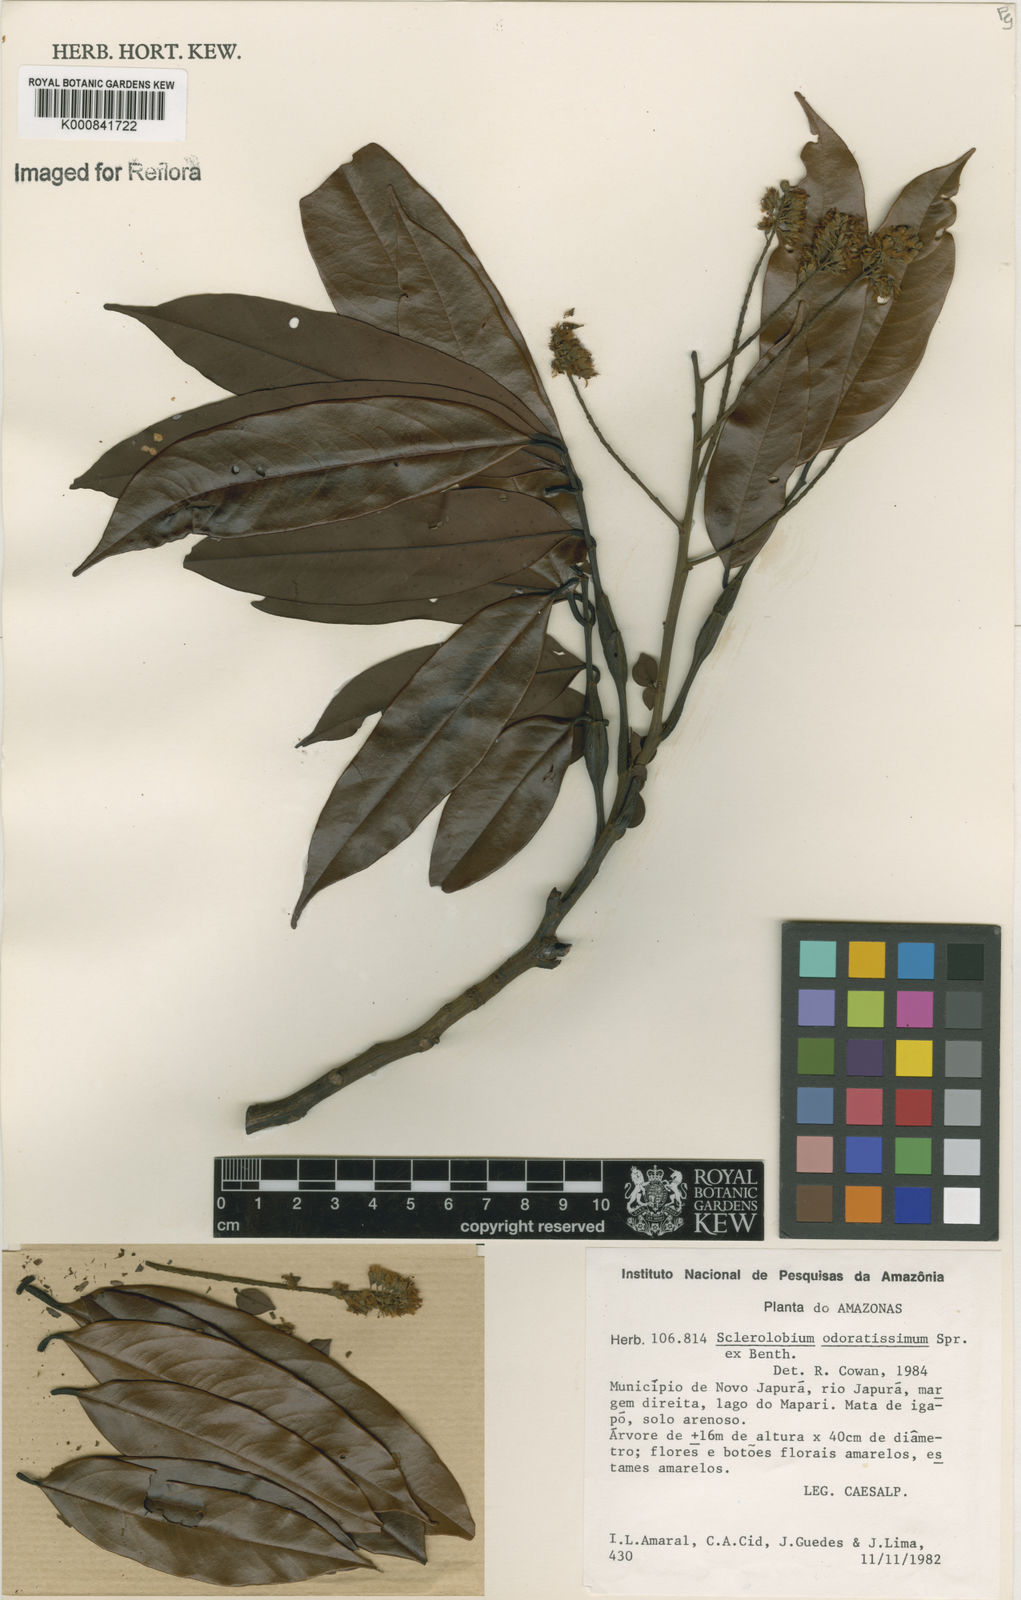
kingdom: Plantae
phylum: Tracheophyta
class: Magnoliopsida
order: Fabales
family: Fabaceae
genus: Tachigali
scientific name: Tachigali odoratissima
